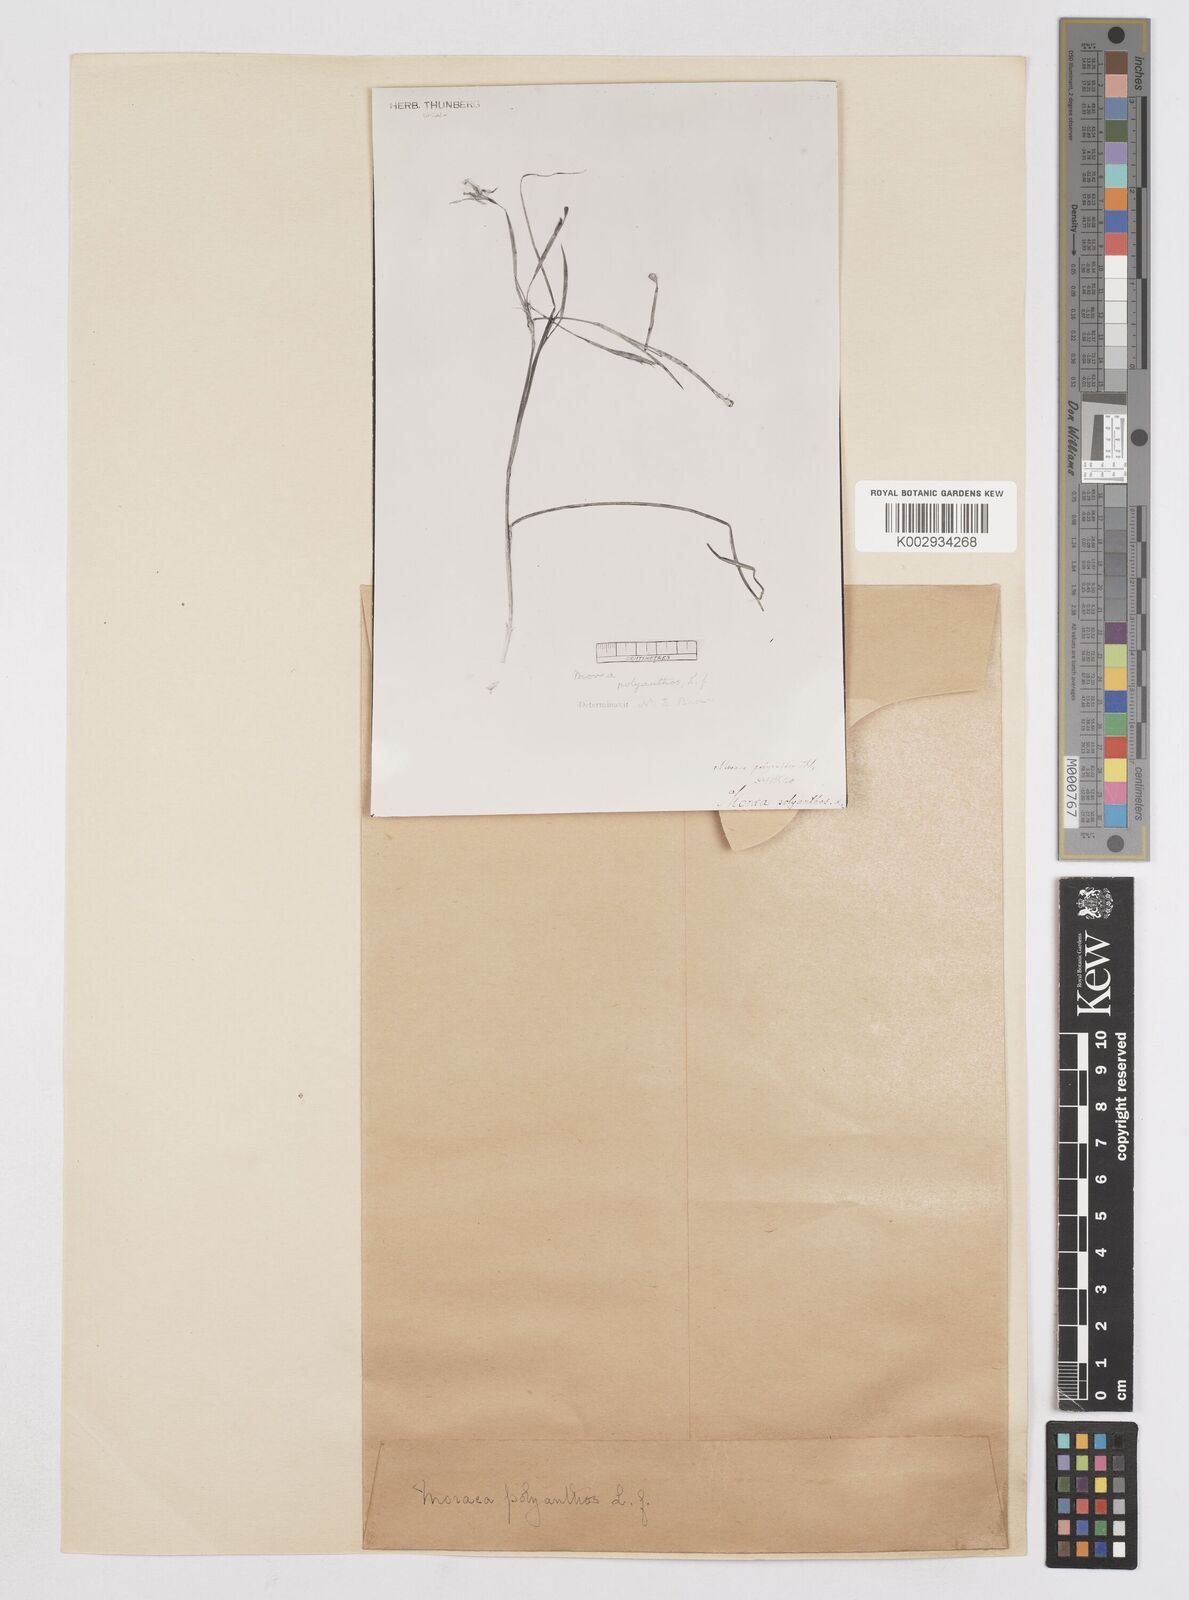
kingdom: Plantae
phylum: Tracheophyta
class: Liliopsida
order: Asparagales
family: Iridaceae
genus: Moraea
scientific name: Moraea bipartita
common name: Blue tulp
